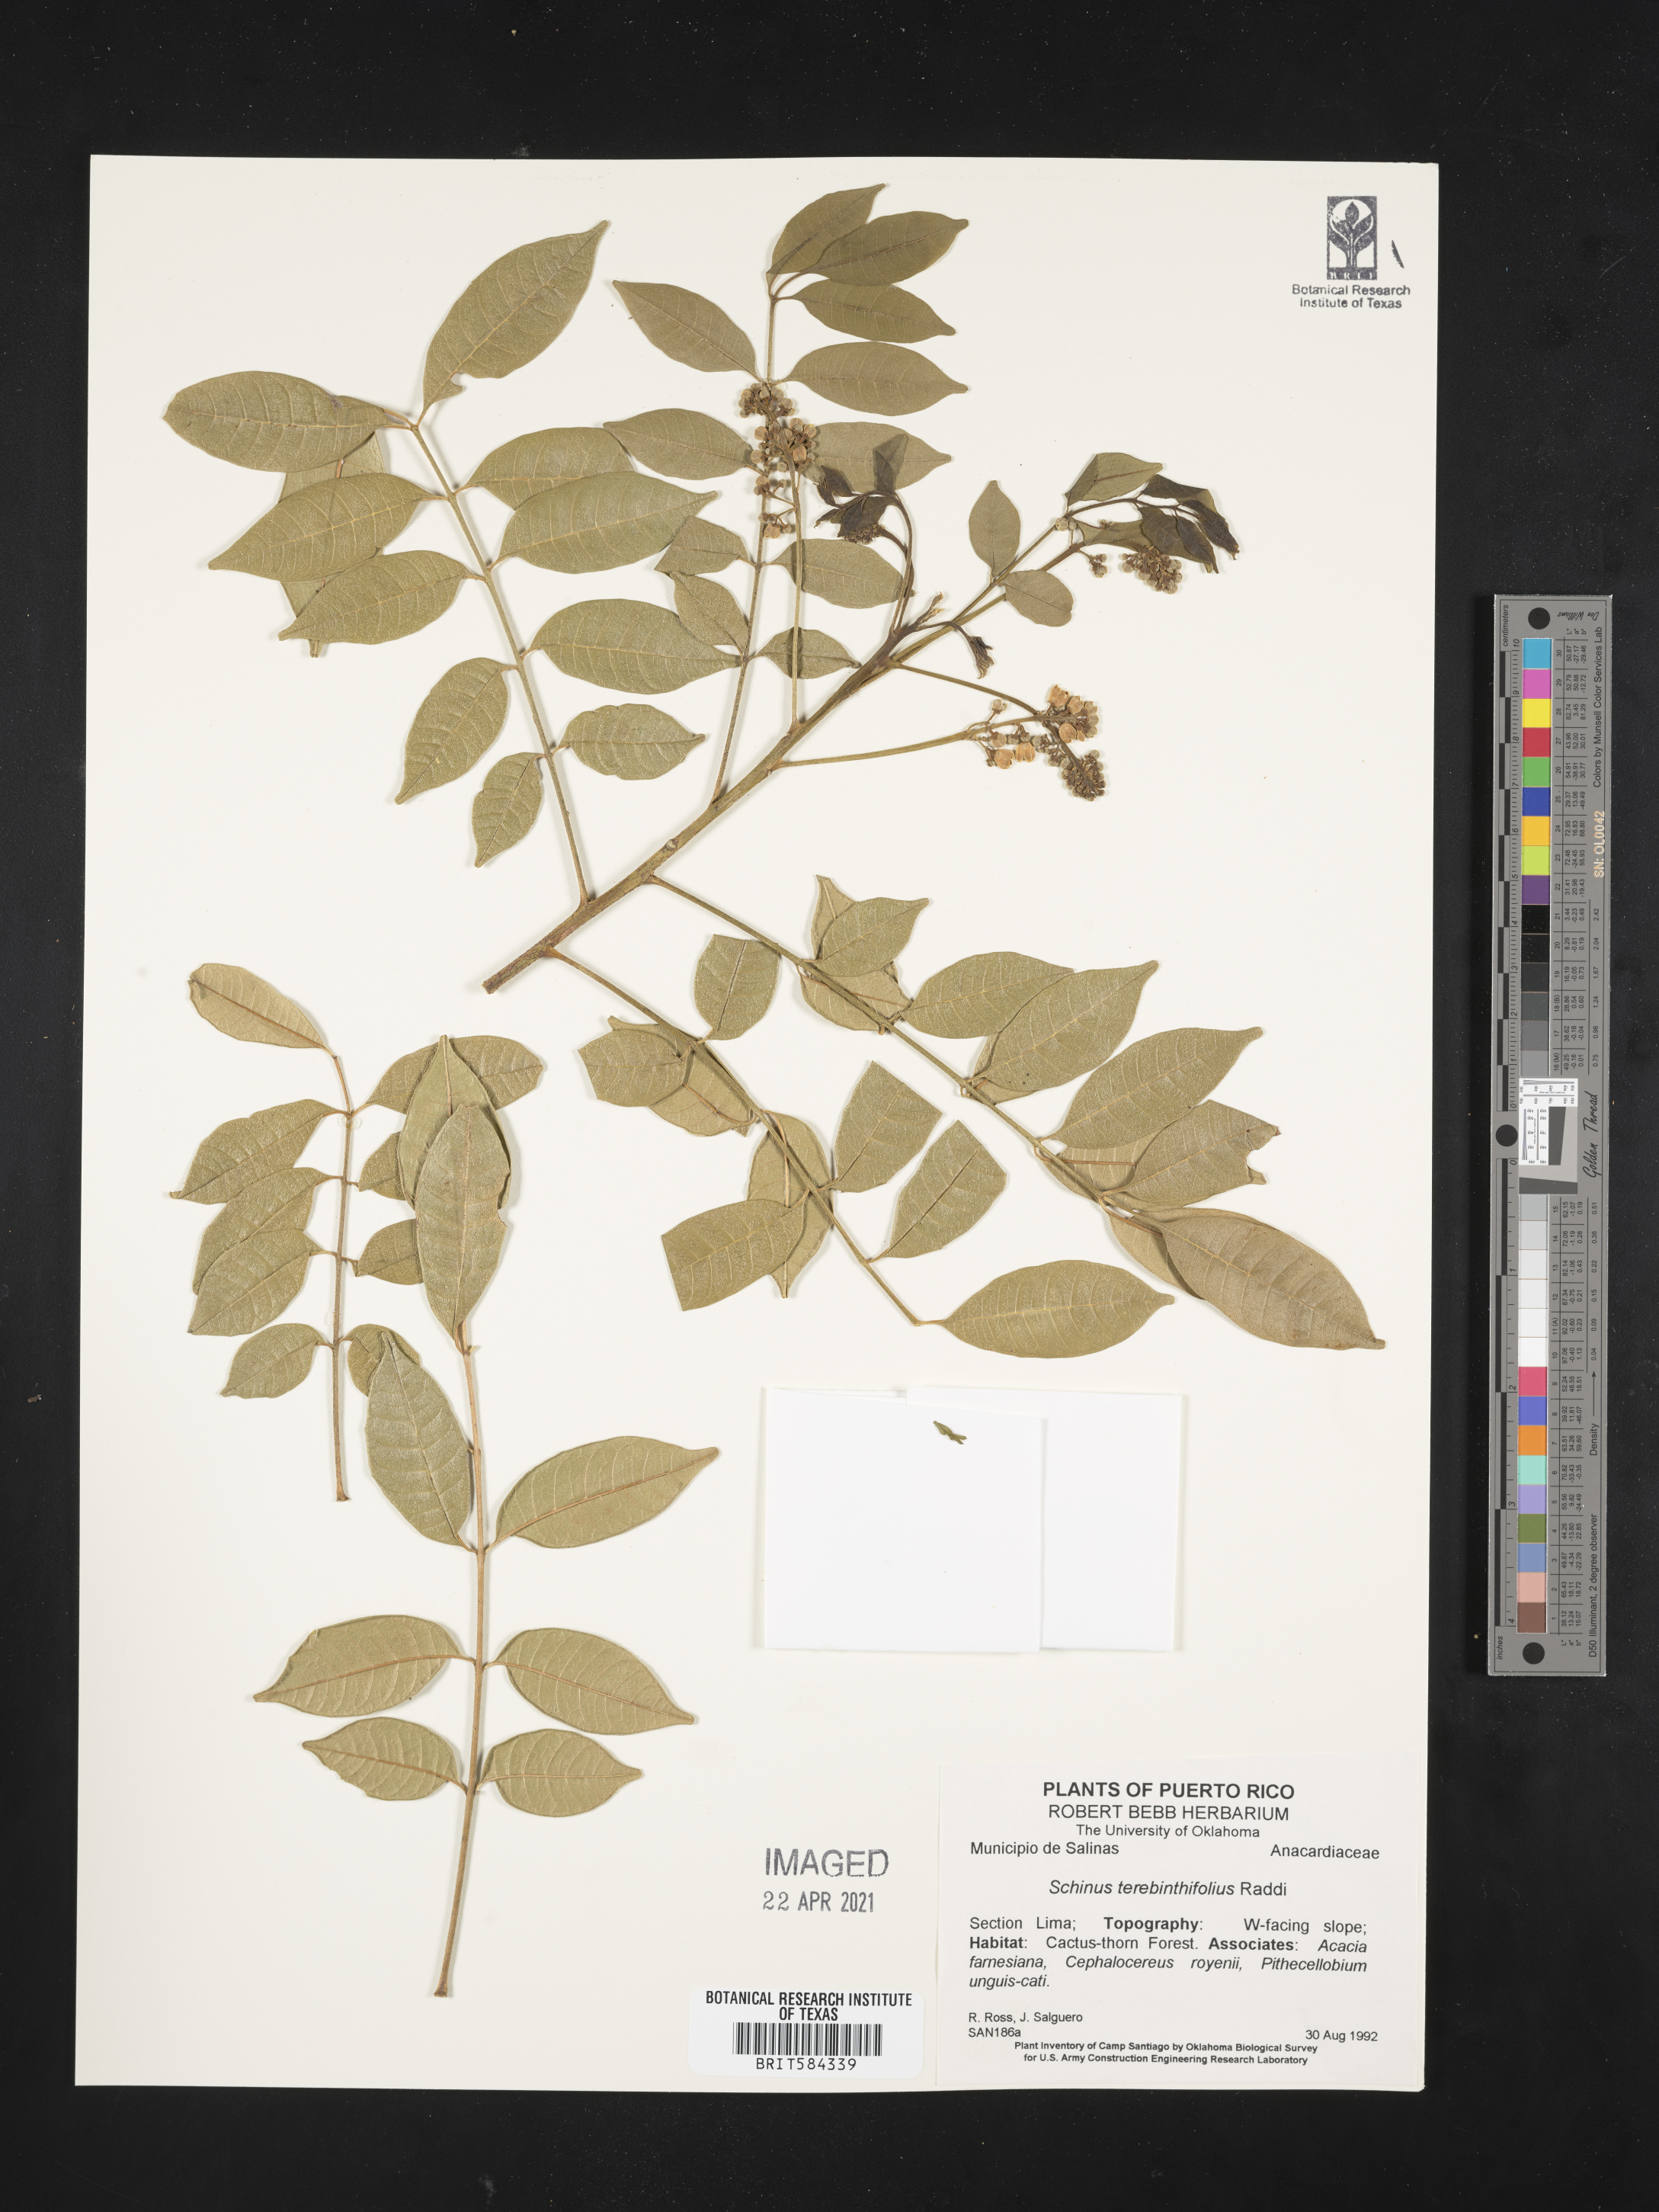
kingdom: Plantae
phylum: Tracheophyta
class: Magnoliopsida
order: Sapindales
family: Anacardiaceae
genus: Schinus
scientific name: Schinus terebinthifolia
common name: Brazilian peppertree
